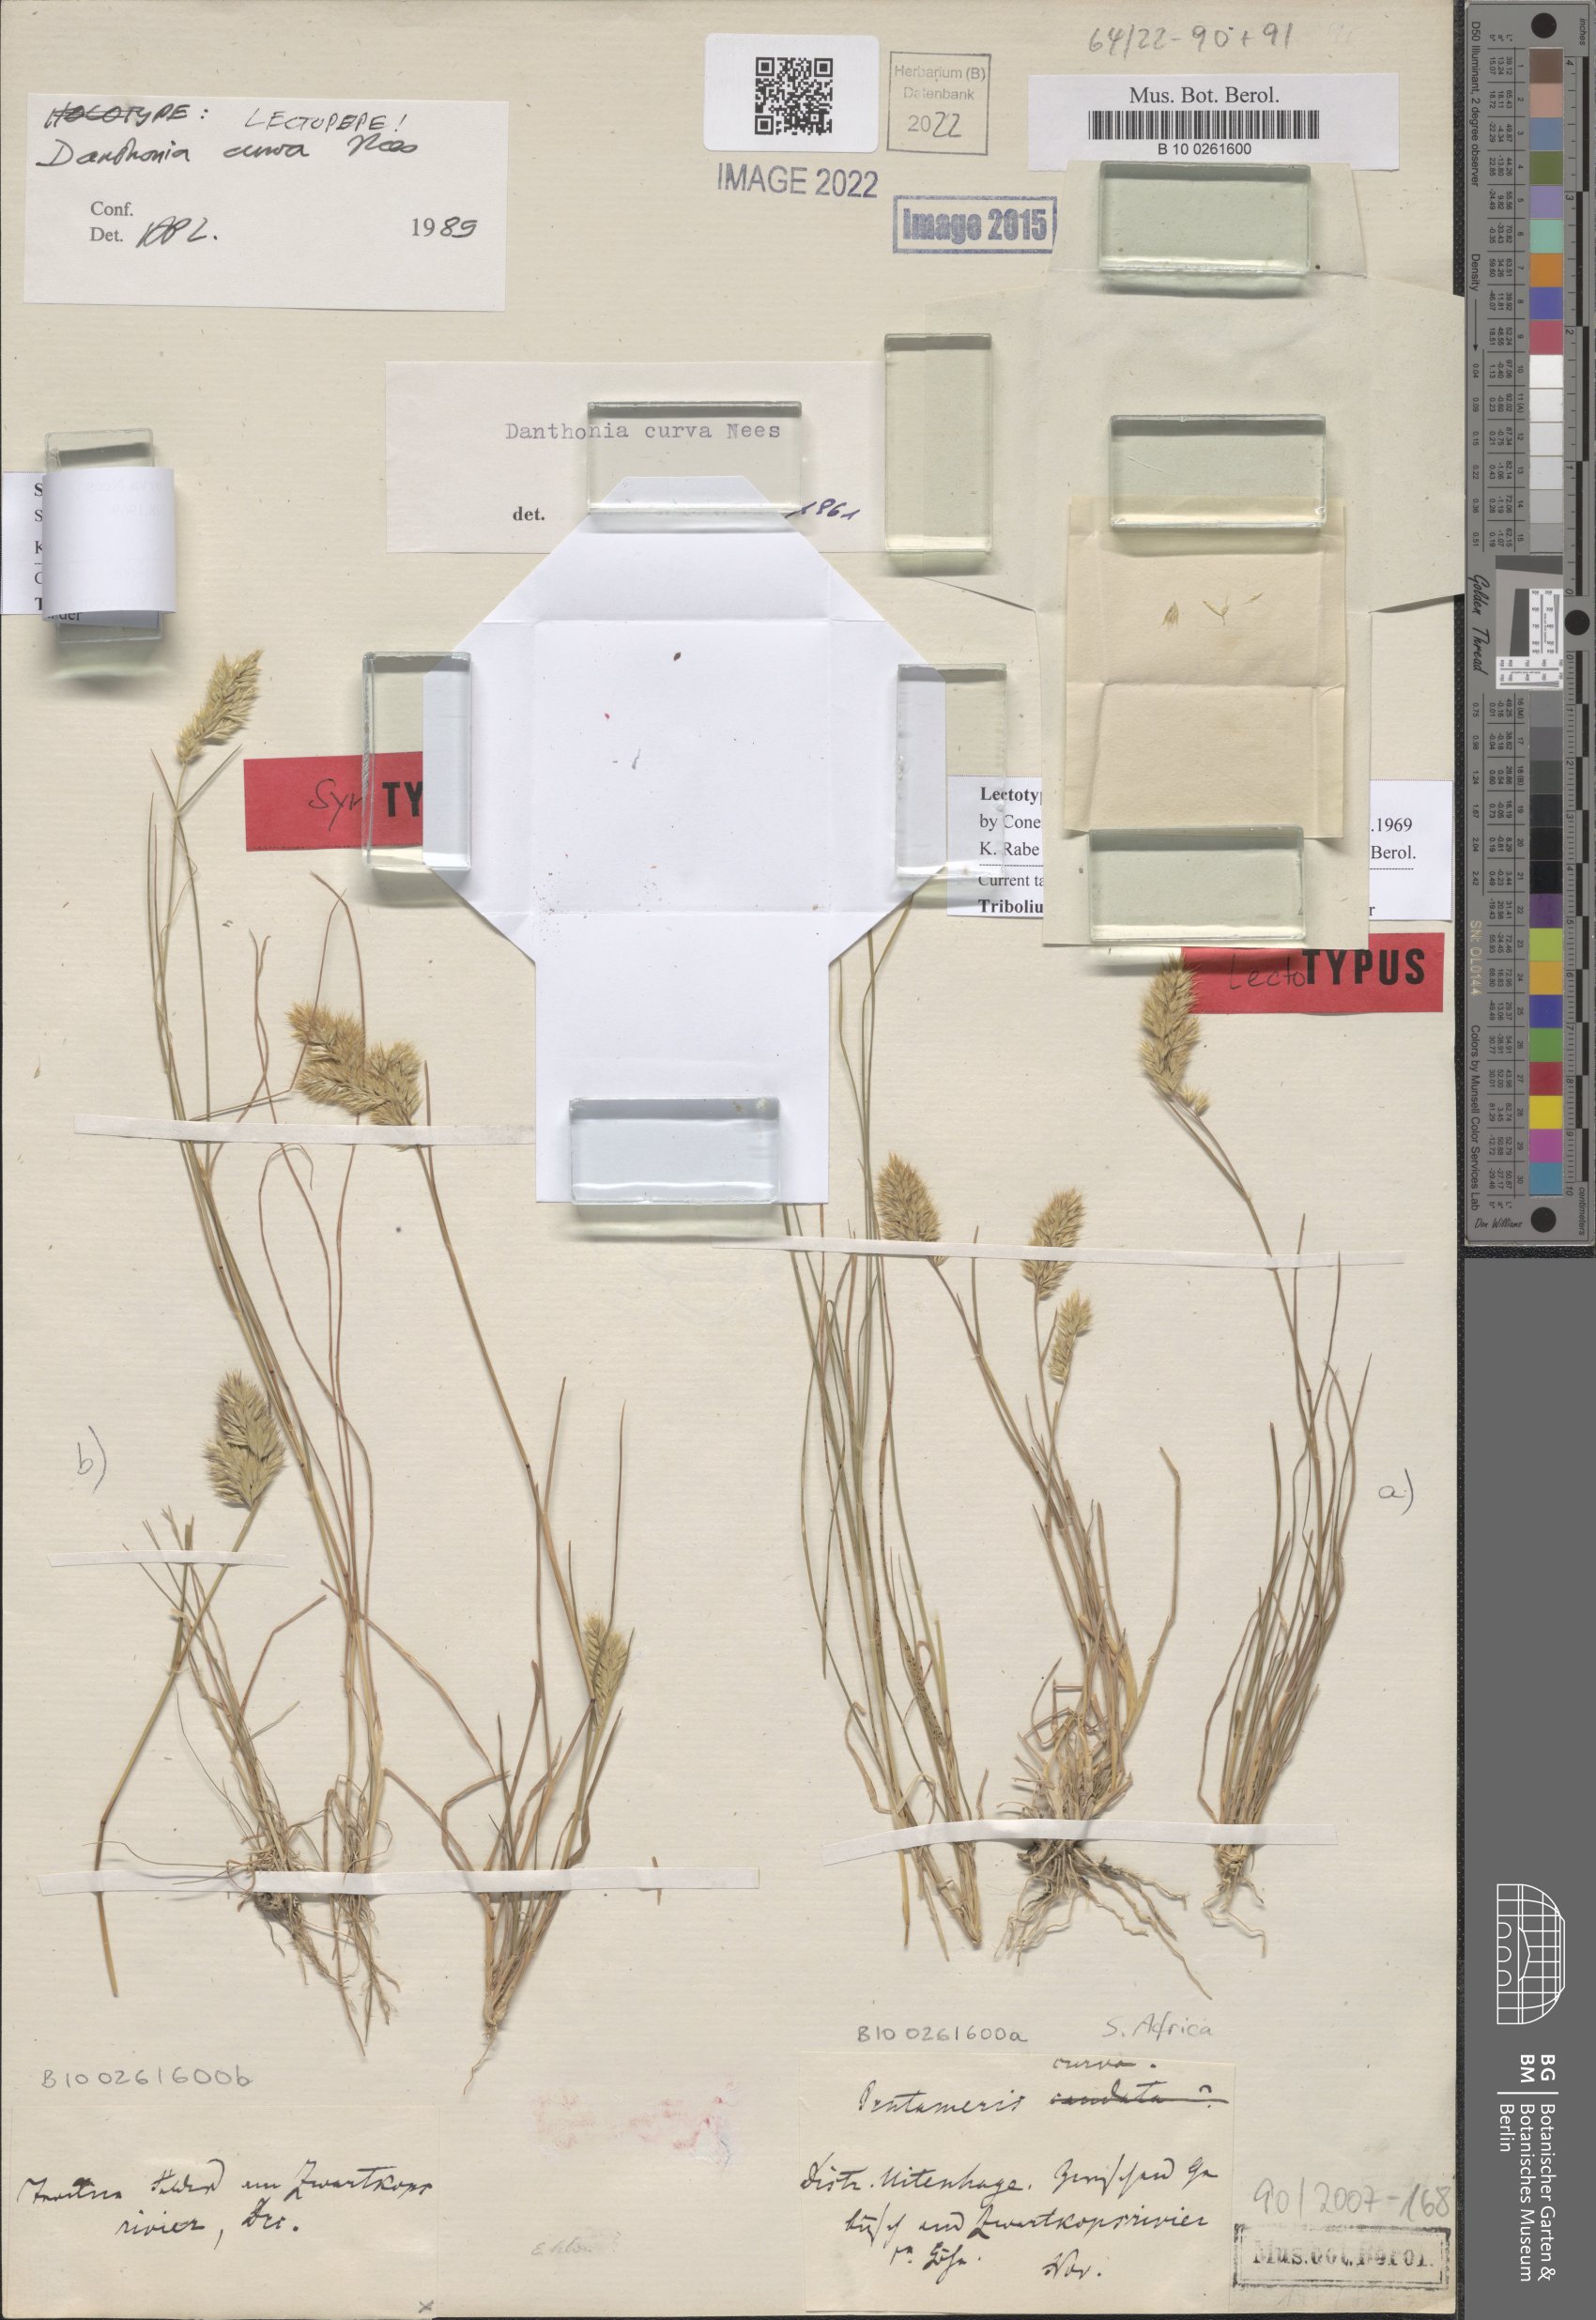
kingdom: Plantae
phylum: Tracheophyta
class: Liliopsida
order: Poales
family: Poaceae
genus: Tribolium
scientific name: Tribolium curvum
